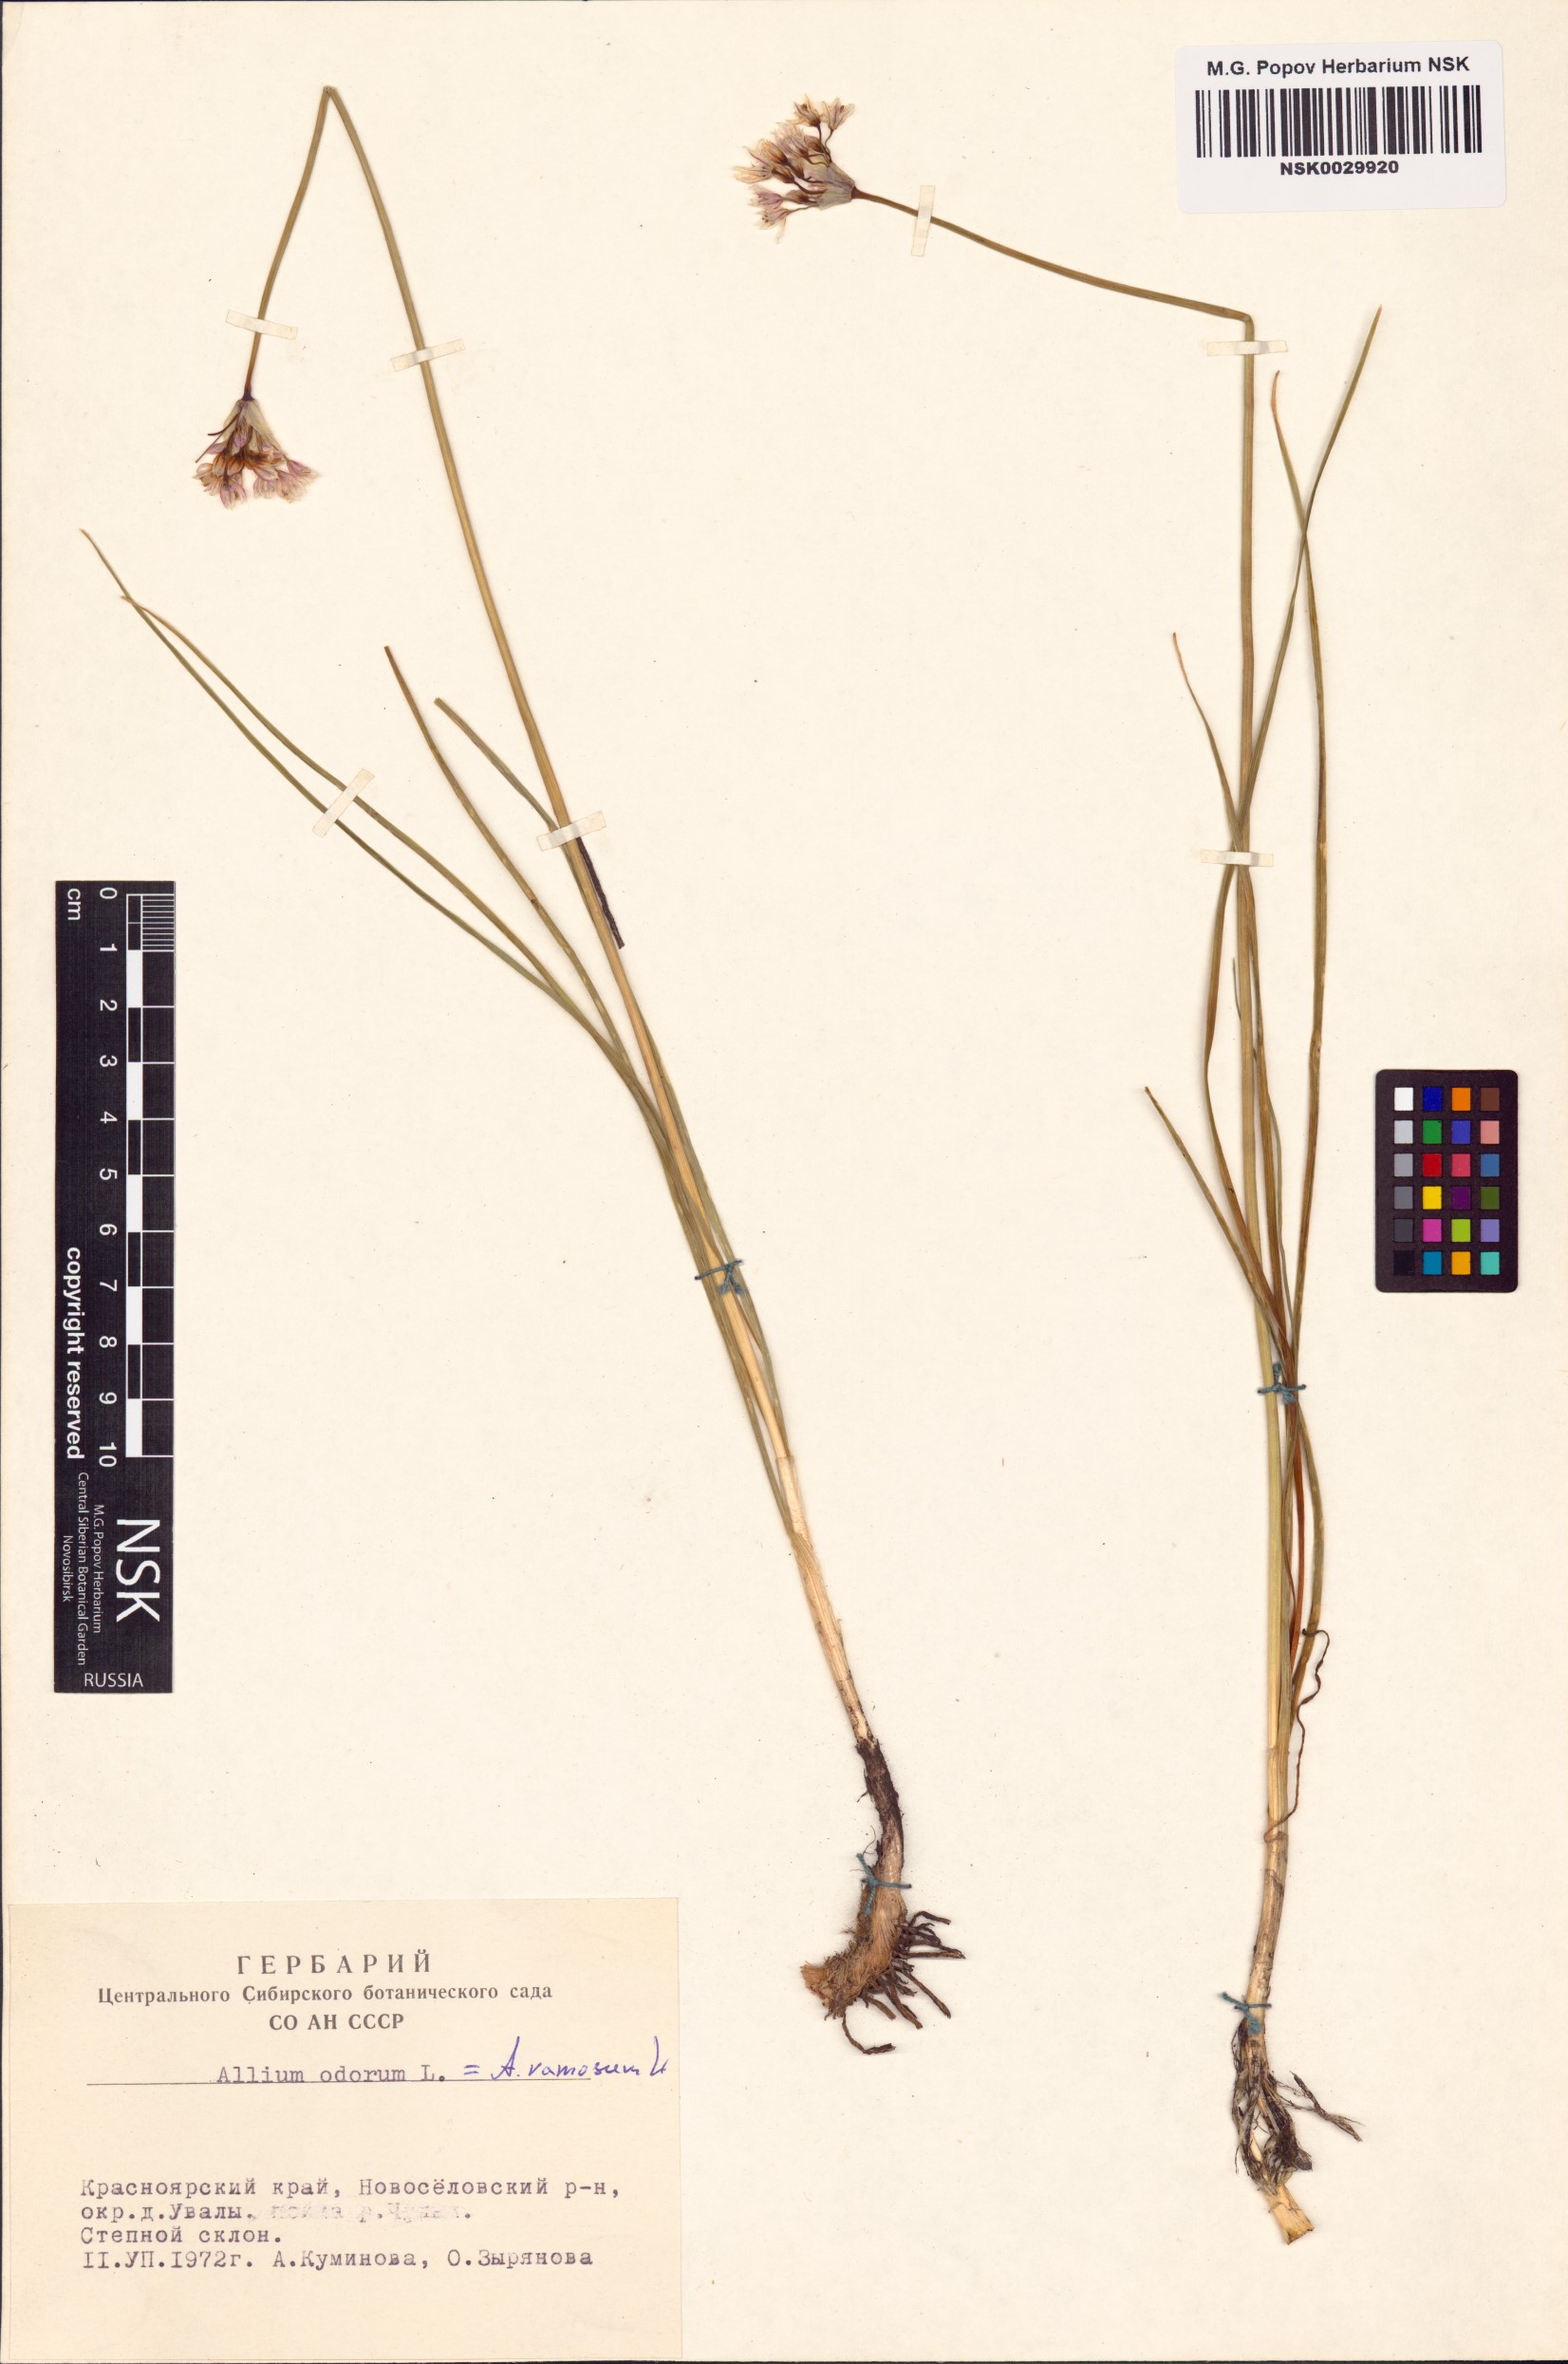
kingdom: Plantae
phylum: Tracheophyta
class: Liliopsida
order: Asparagales
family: Amaryllidaceae
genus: Allium
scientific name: Allium ramosum
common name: Fragrant garlic
